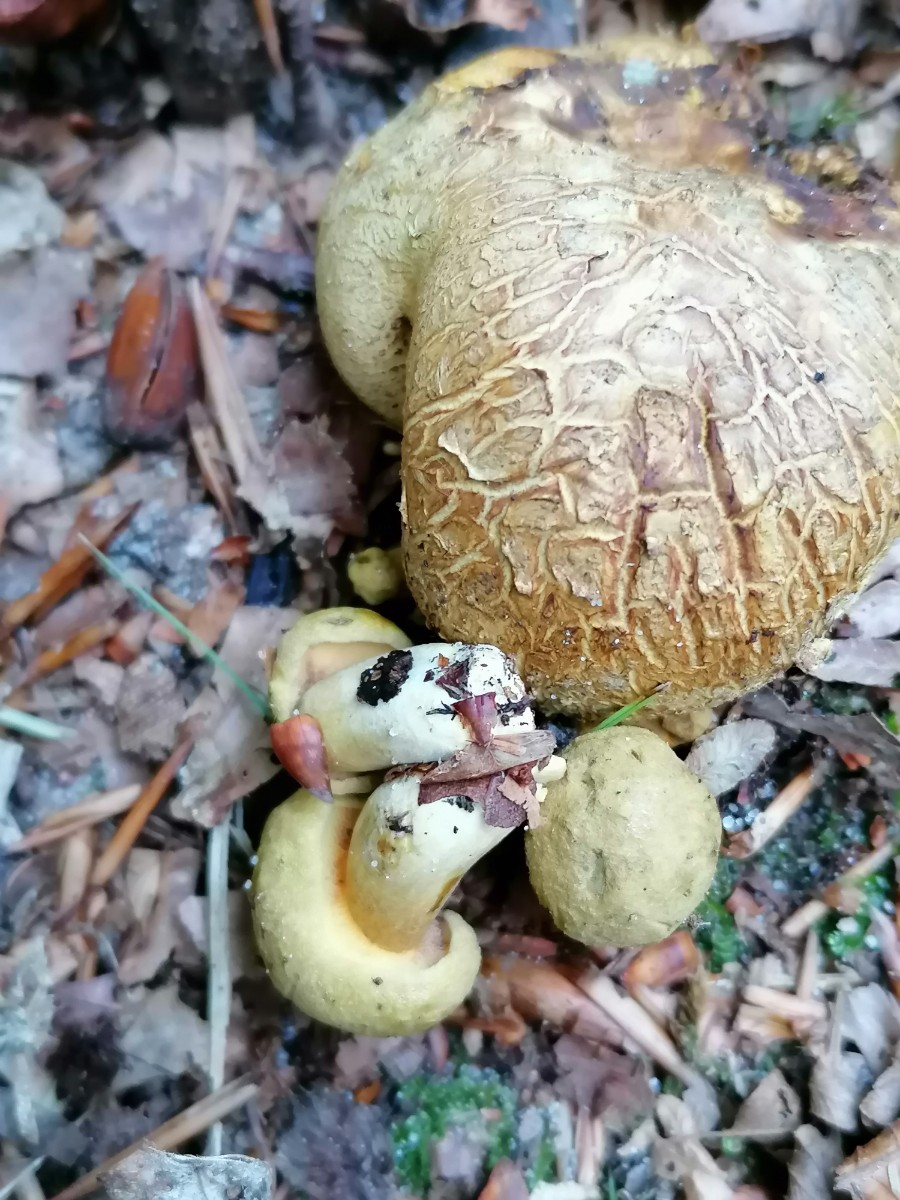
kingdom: Fungi
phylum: Basidiomycota
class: Agaricomycetes
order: Boletales
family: Boletaceae
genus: Pseudoboletus
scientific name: Pseudoboletus parasiticus
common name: snyltende rørhat
